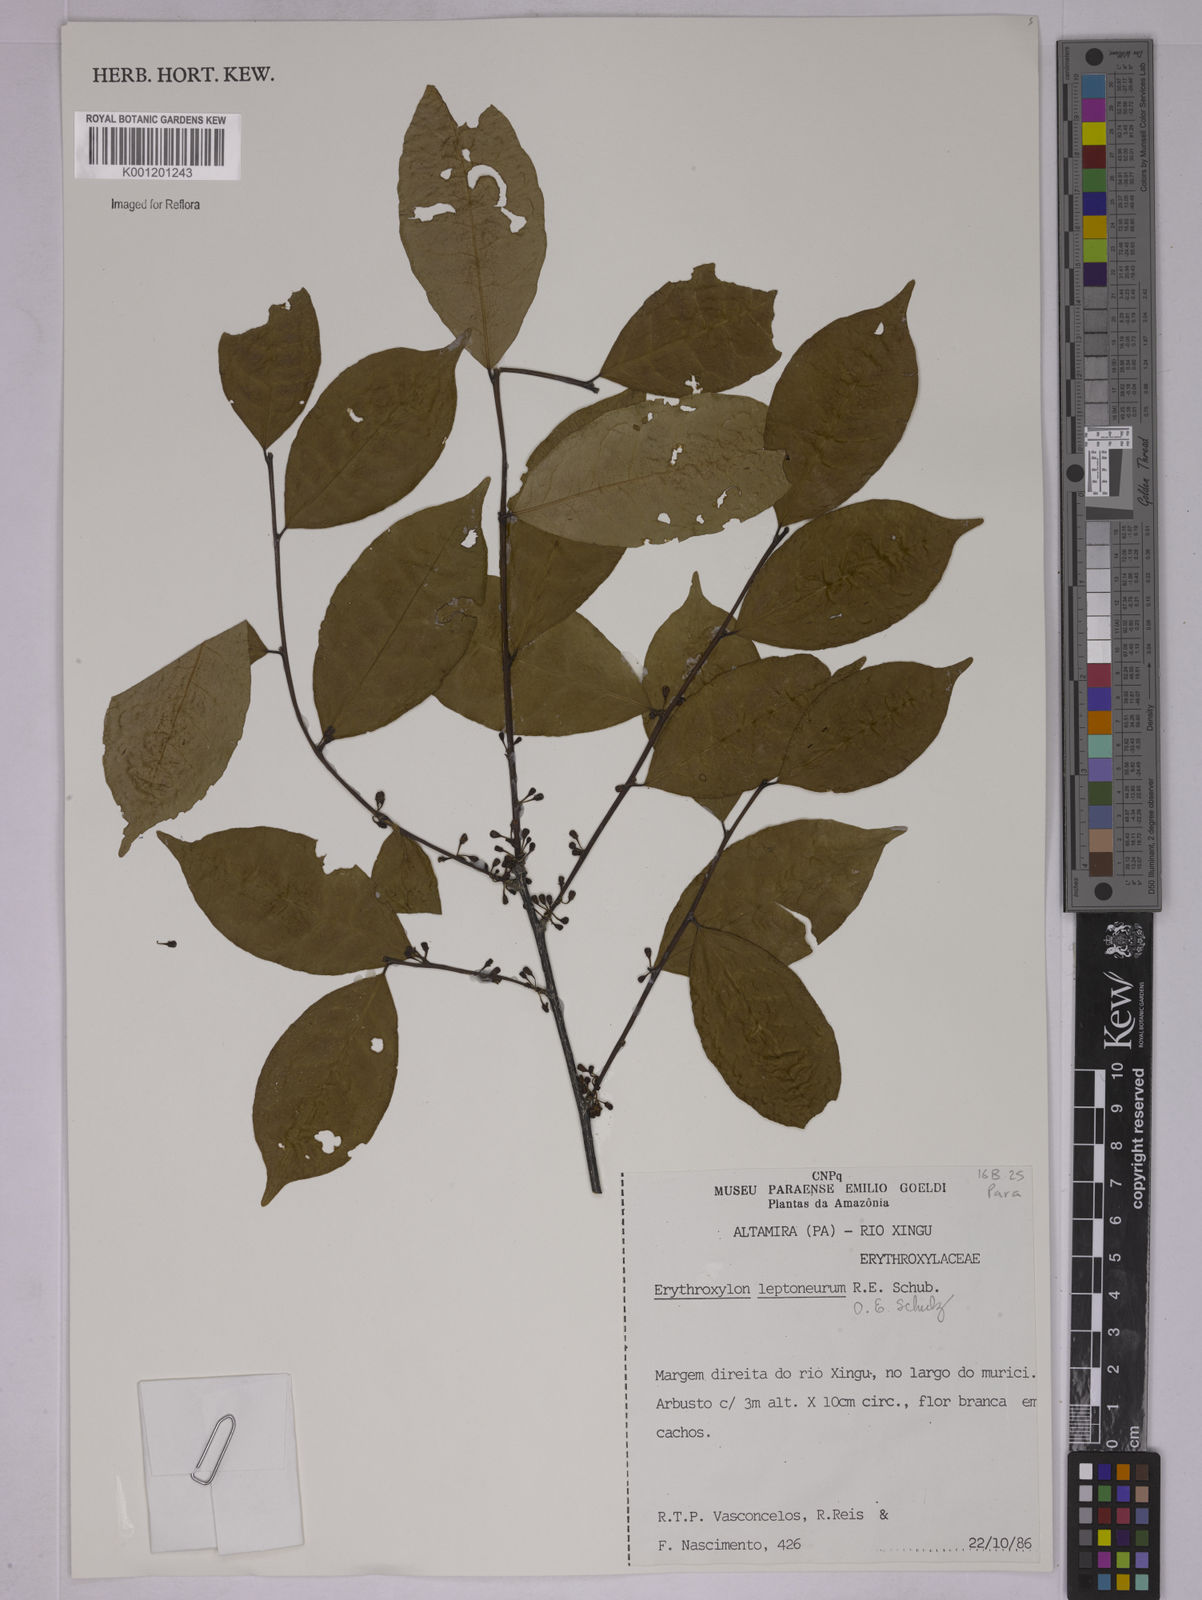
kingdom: Plantae
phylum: Tracheophyta
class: Magnoliopsida
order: Malpighiales
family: Erythroxylaceae
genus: Erythroxylum
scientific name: Erythroxylum leptoneurum
